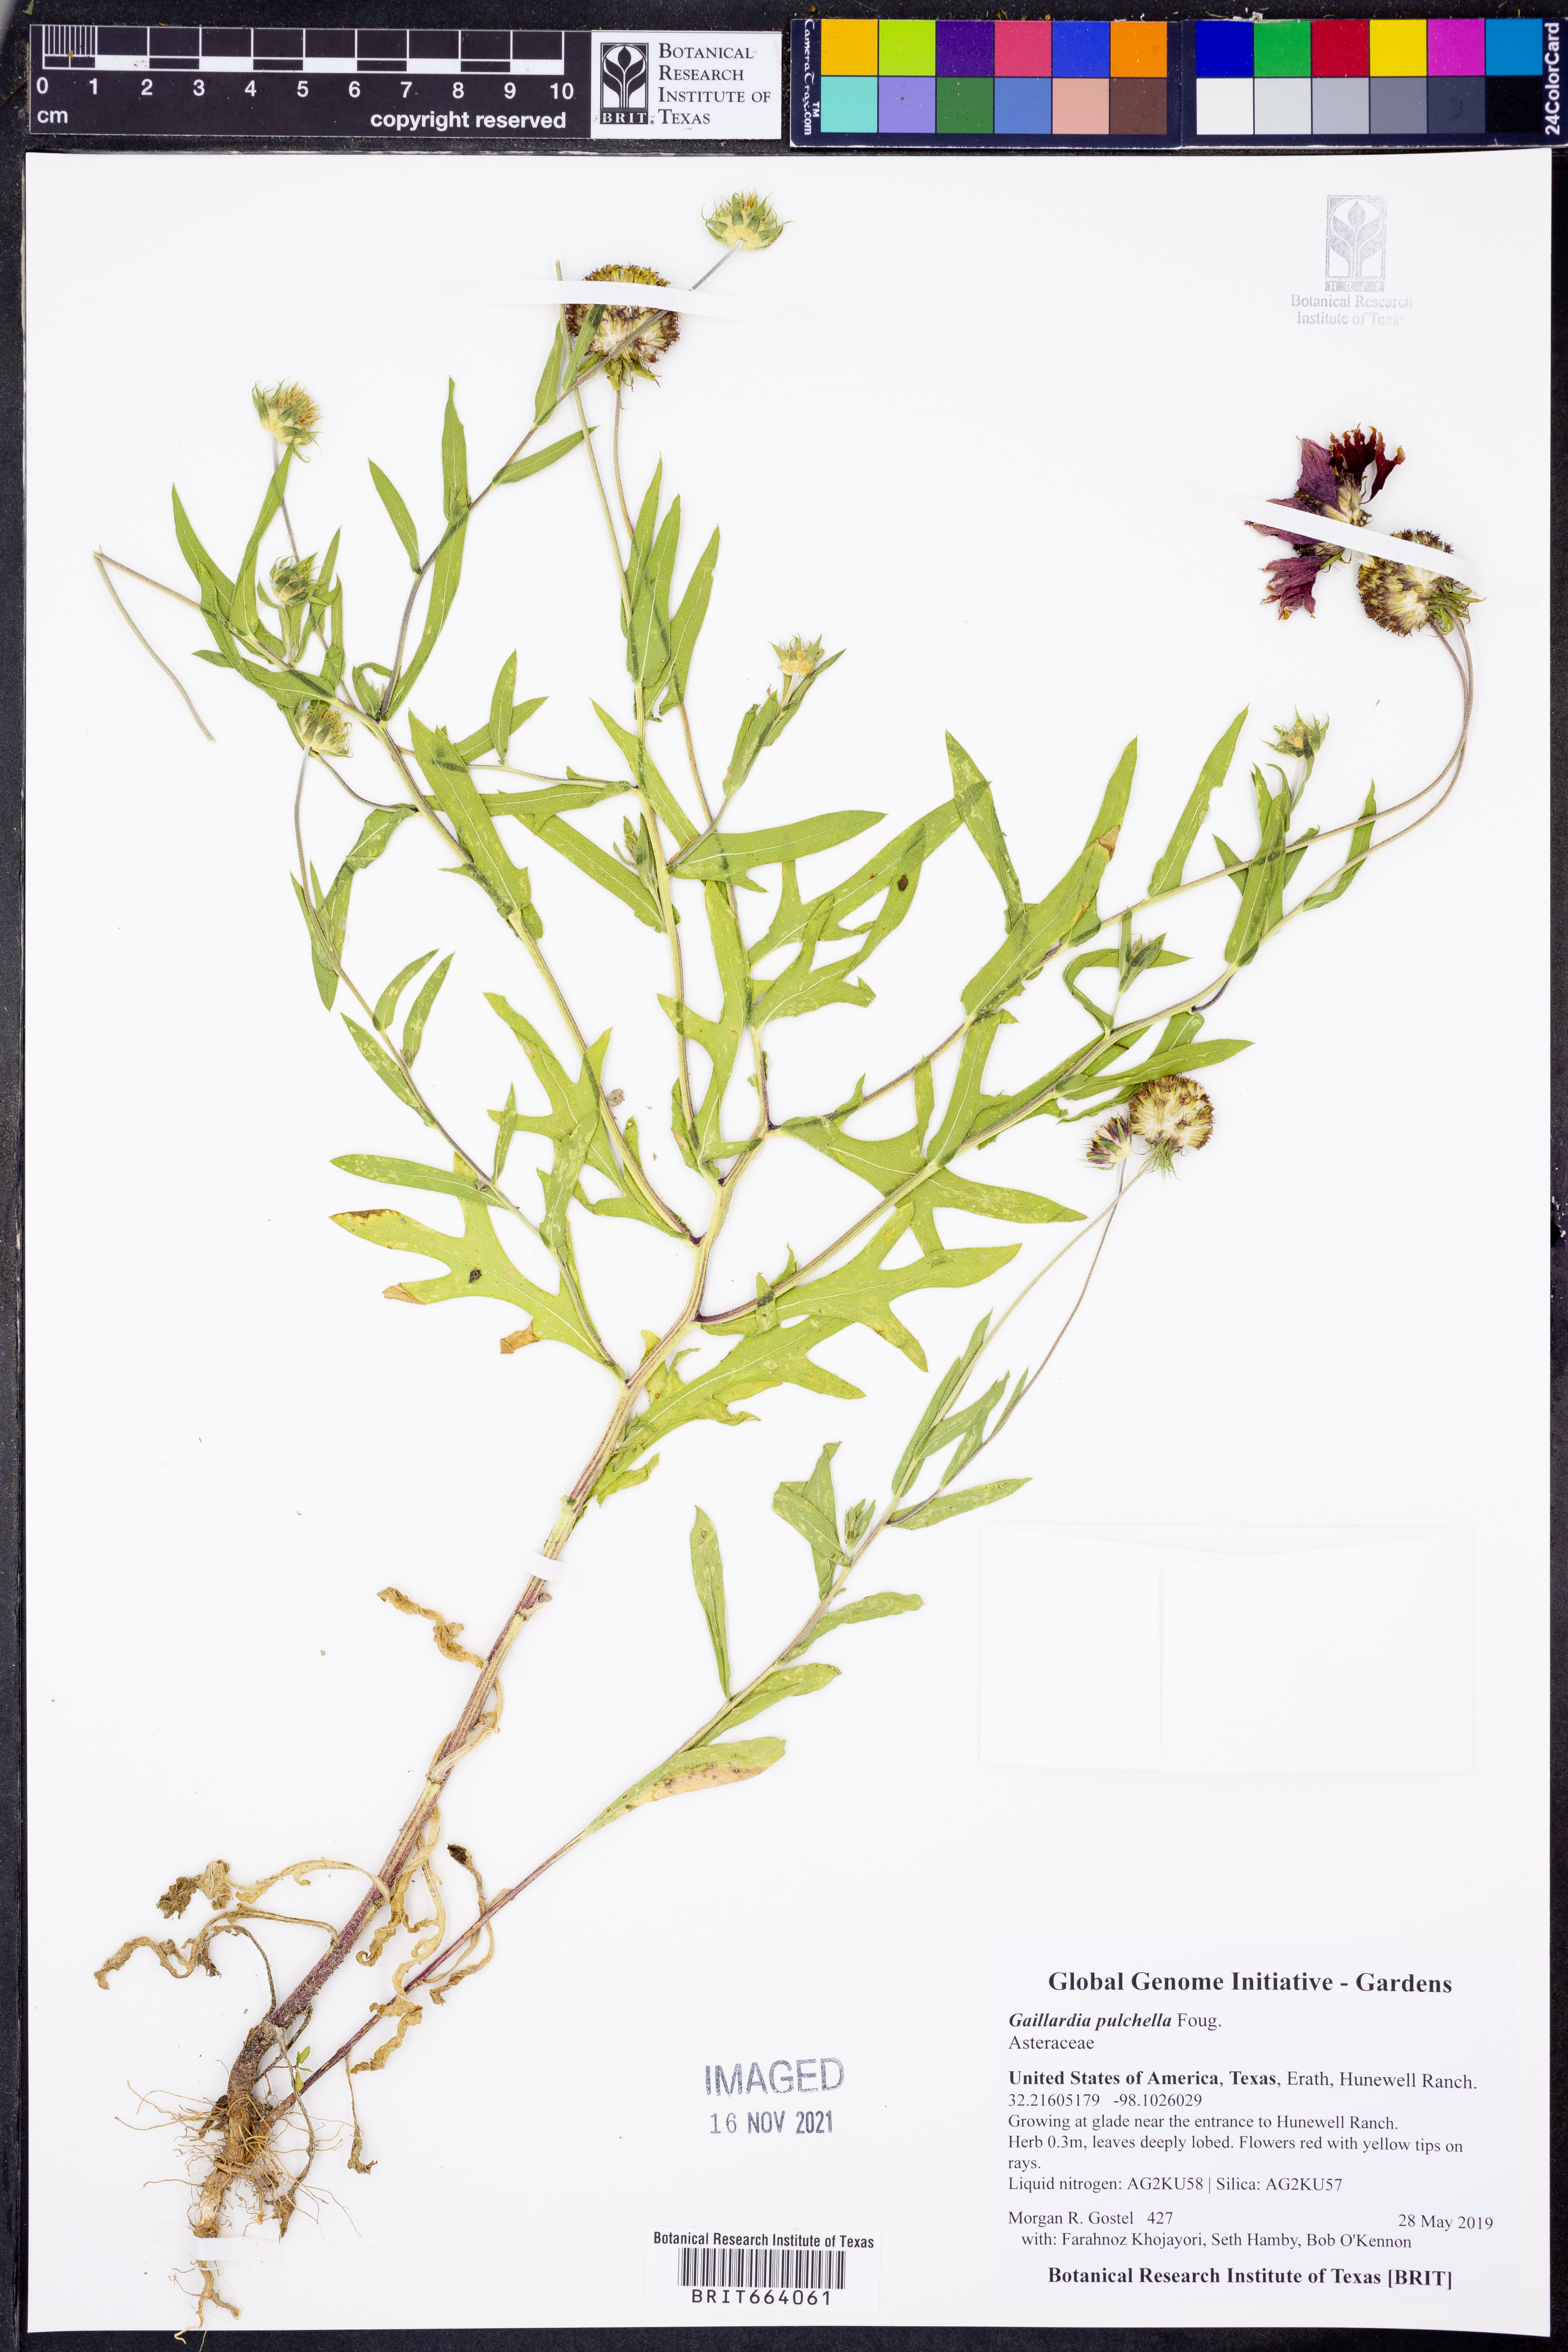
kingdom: Plantae
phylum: Tracheophyta
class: Magnoliopsida
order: Asterales
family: Asteraceae
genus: Gaillardia
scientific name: Gaillardia pulchella
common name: Firewheel
